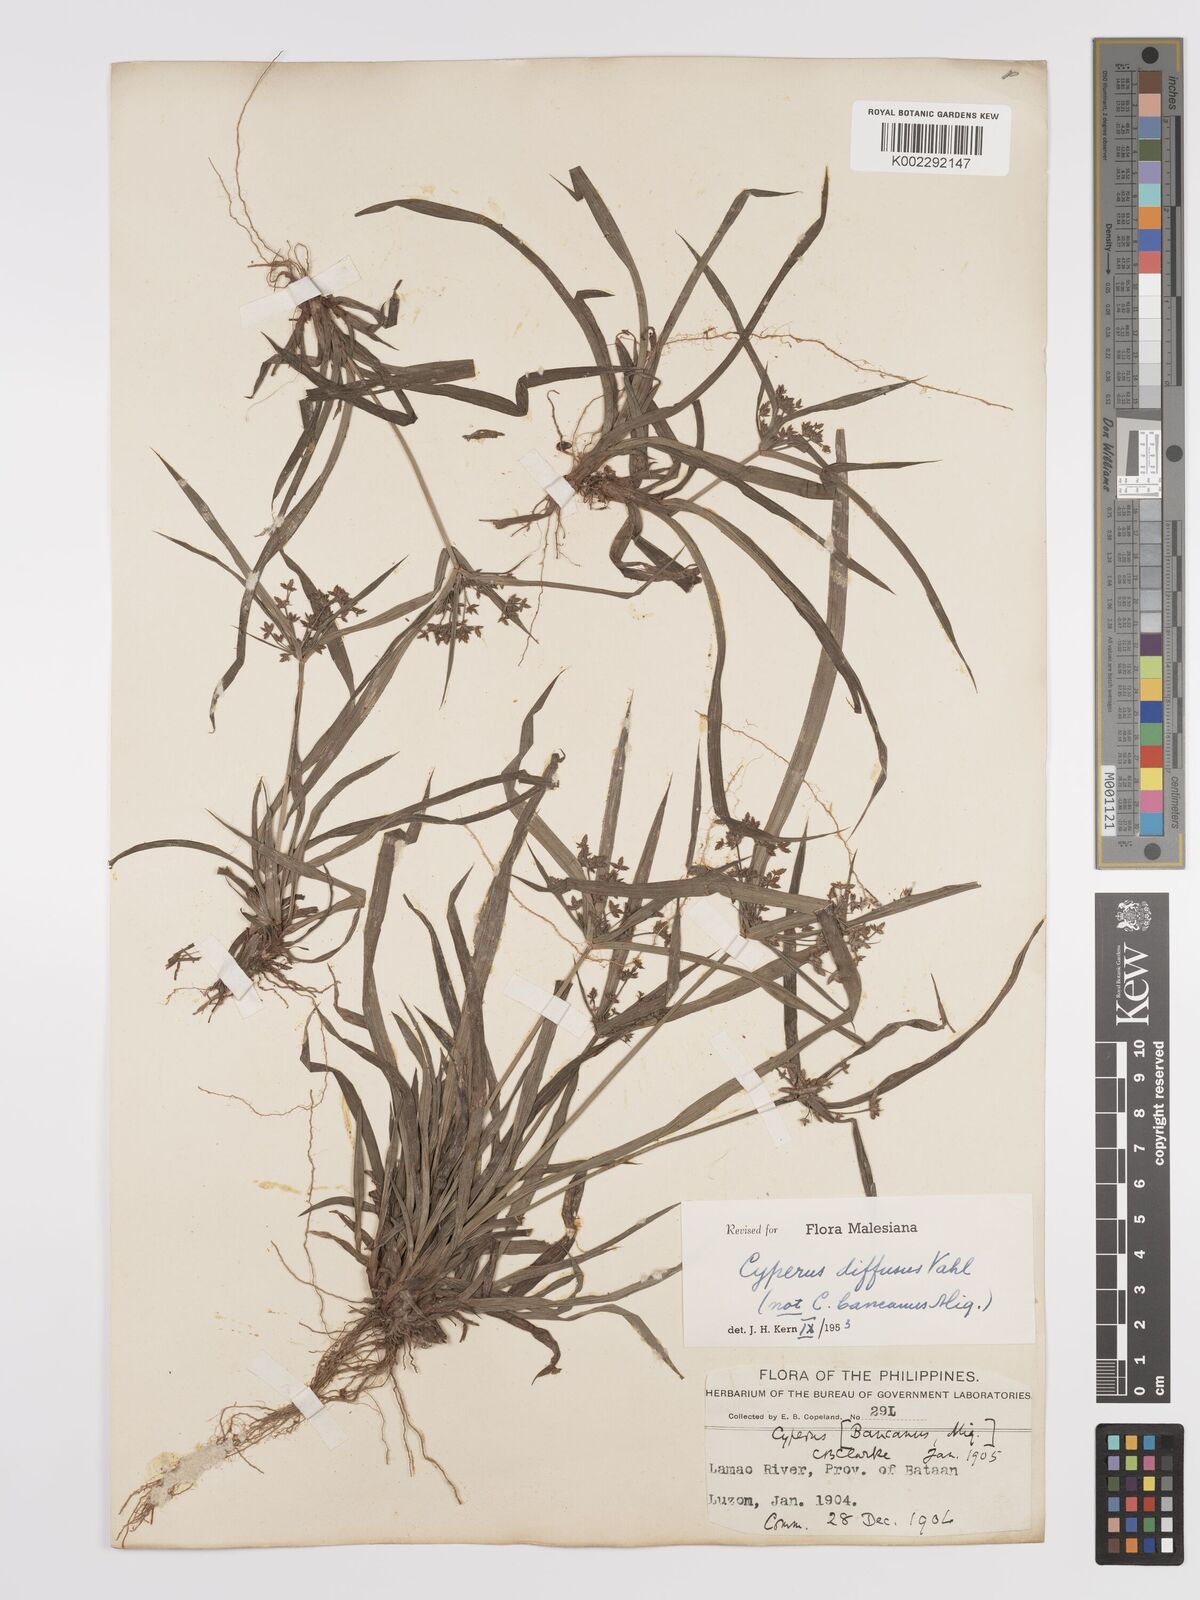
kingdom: Plantae
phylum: Tracheophyta
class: Liliopsida
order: Poales
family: Cyperaceae
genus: Cyperus
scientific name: Cyperus diffusus
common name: Dwarf umbrella grass
